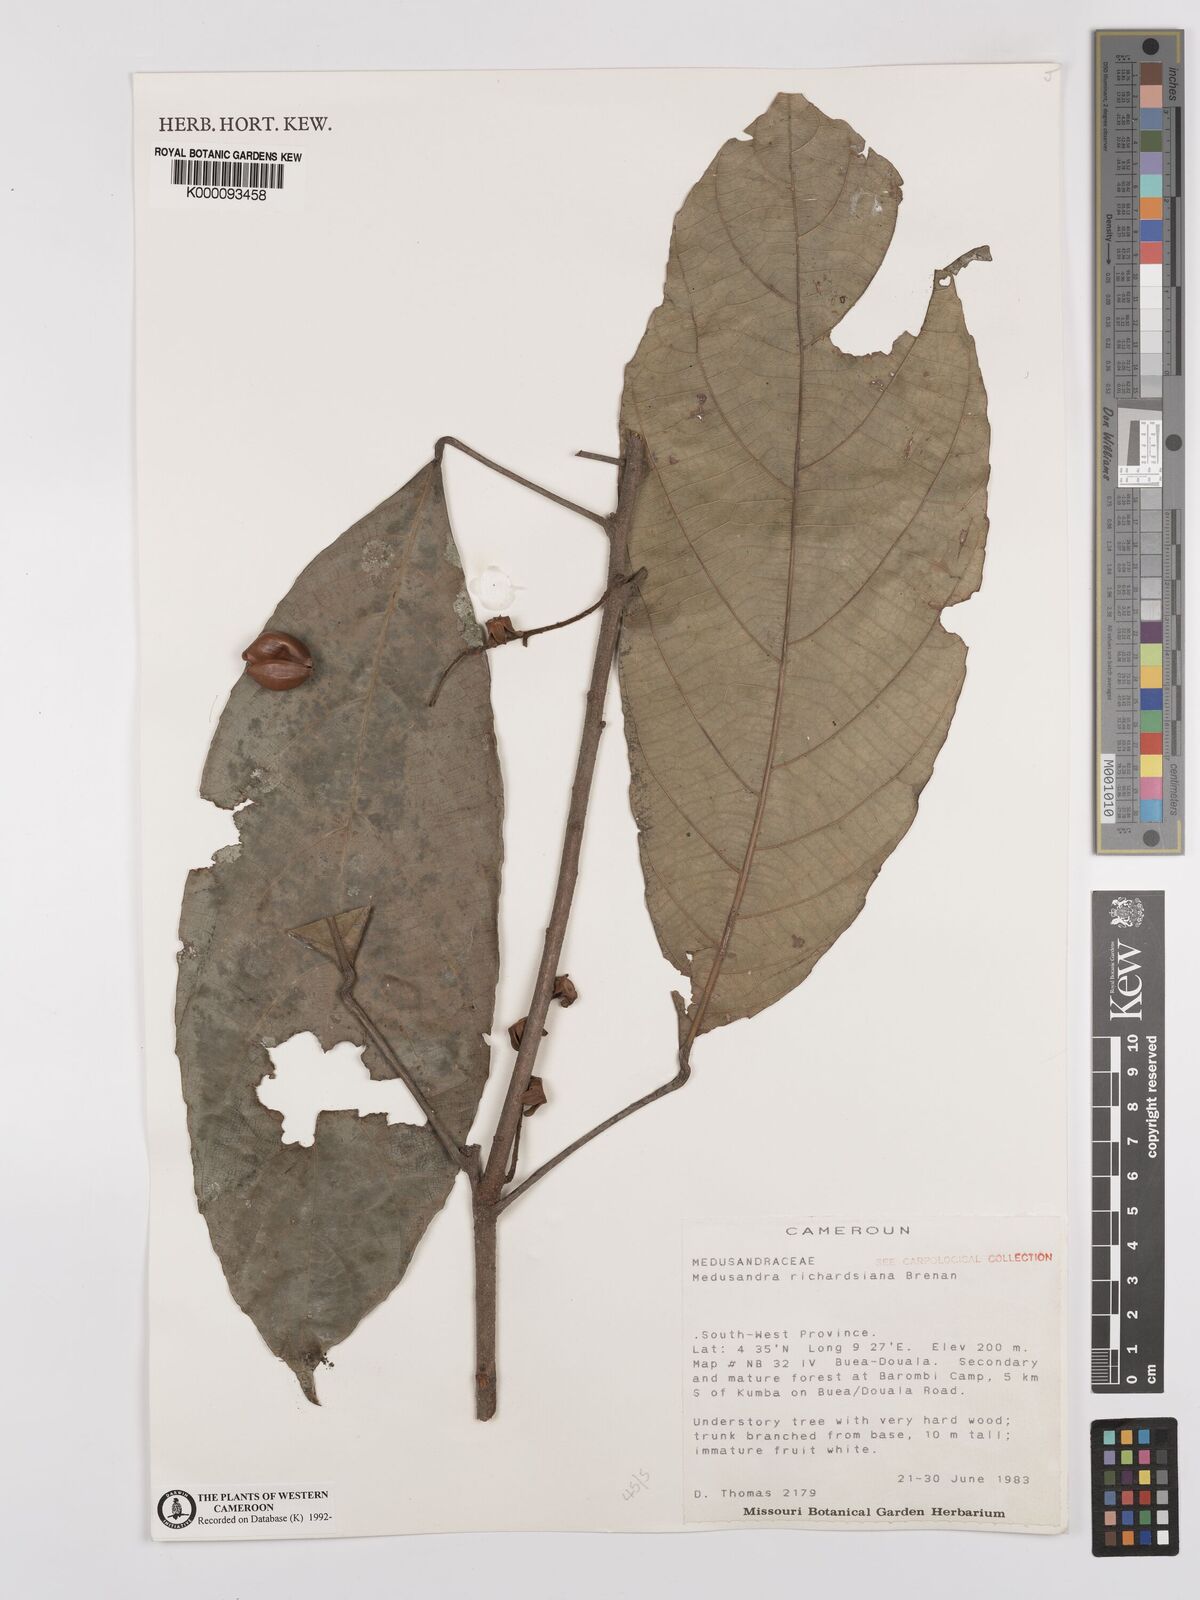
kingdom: Plantae
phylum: Tracheophyta
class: Magnoliopsida
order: Saxifragales
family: Peridiscaceae
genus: Medusandra
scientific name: Medusandra richardsiana
